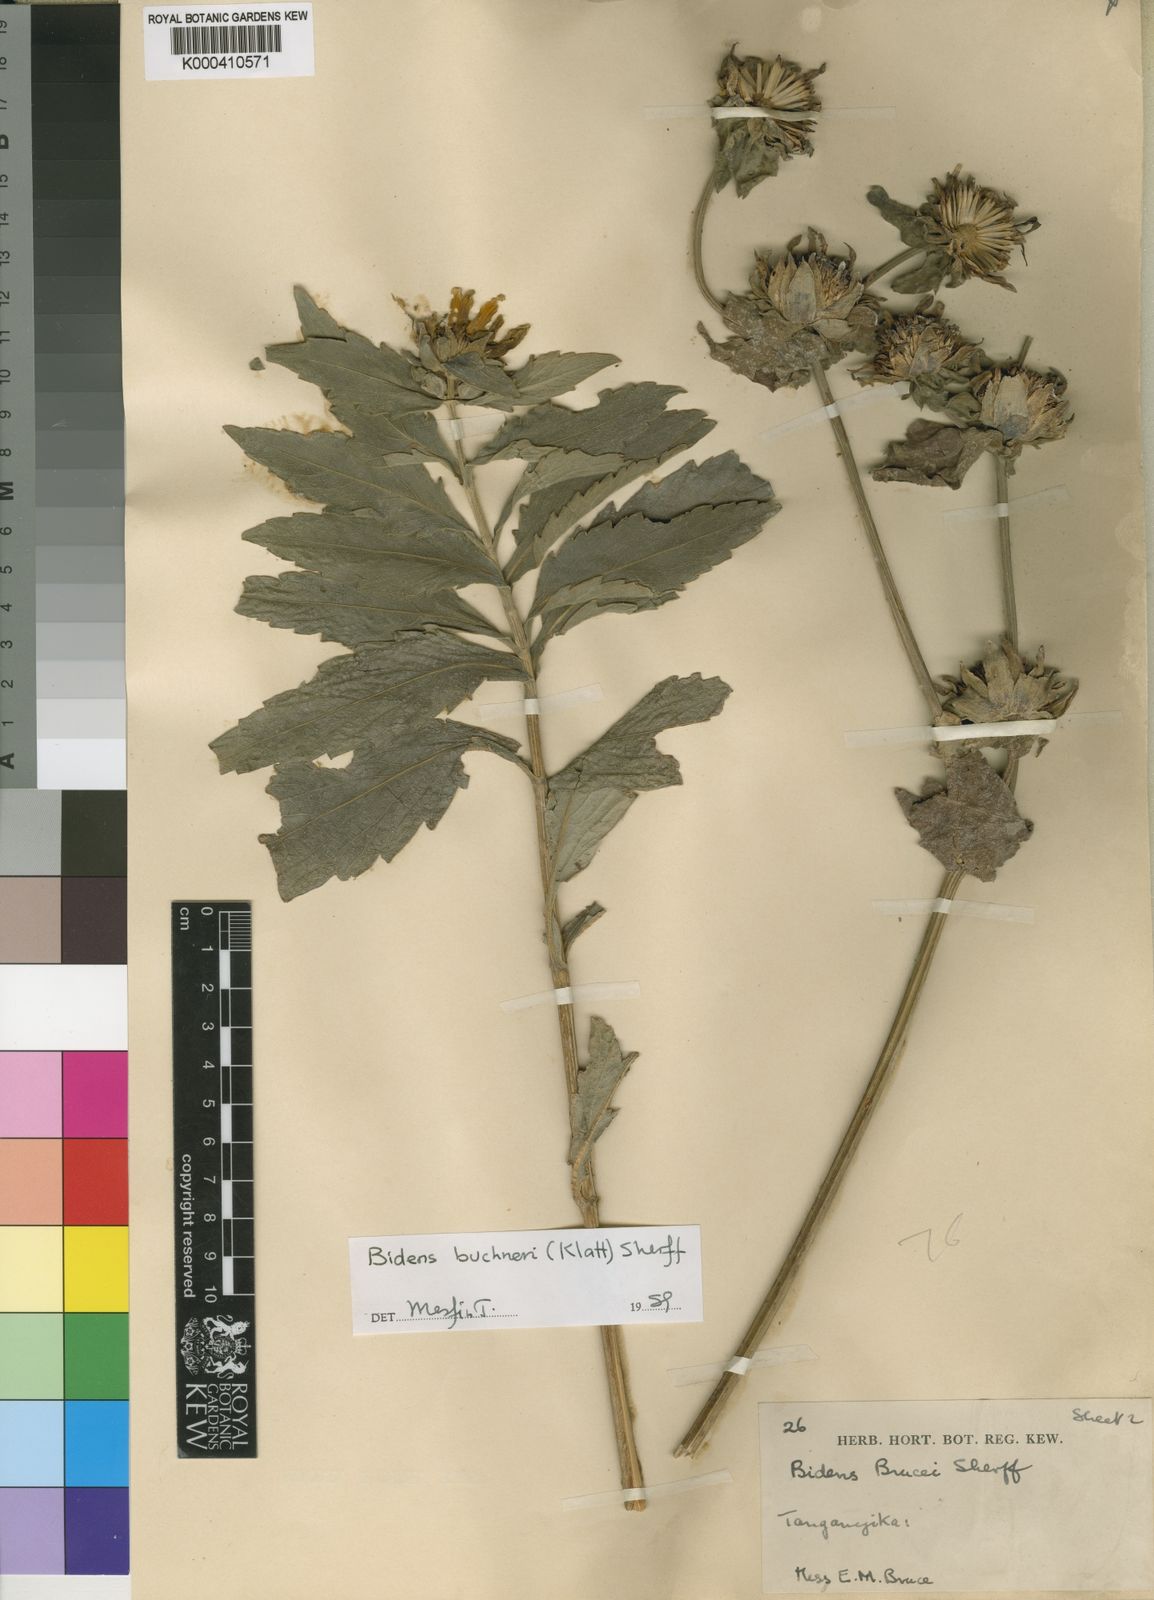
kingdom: Plantae
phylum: Tracheophyta
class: Magnoliopsida
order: Asterales
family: Asteraceae
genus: Bidens
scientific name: Bidens buchneri
